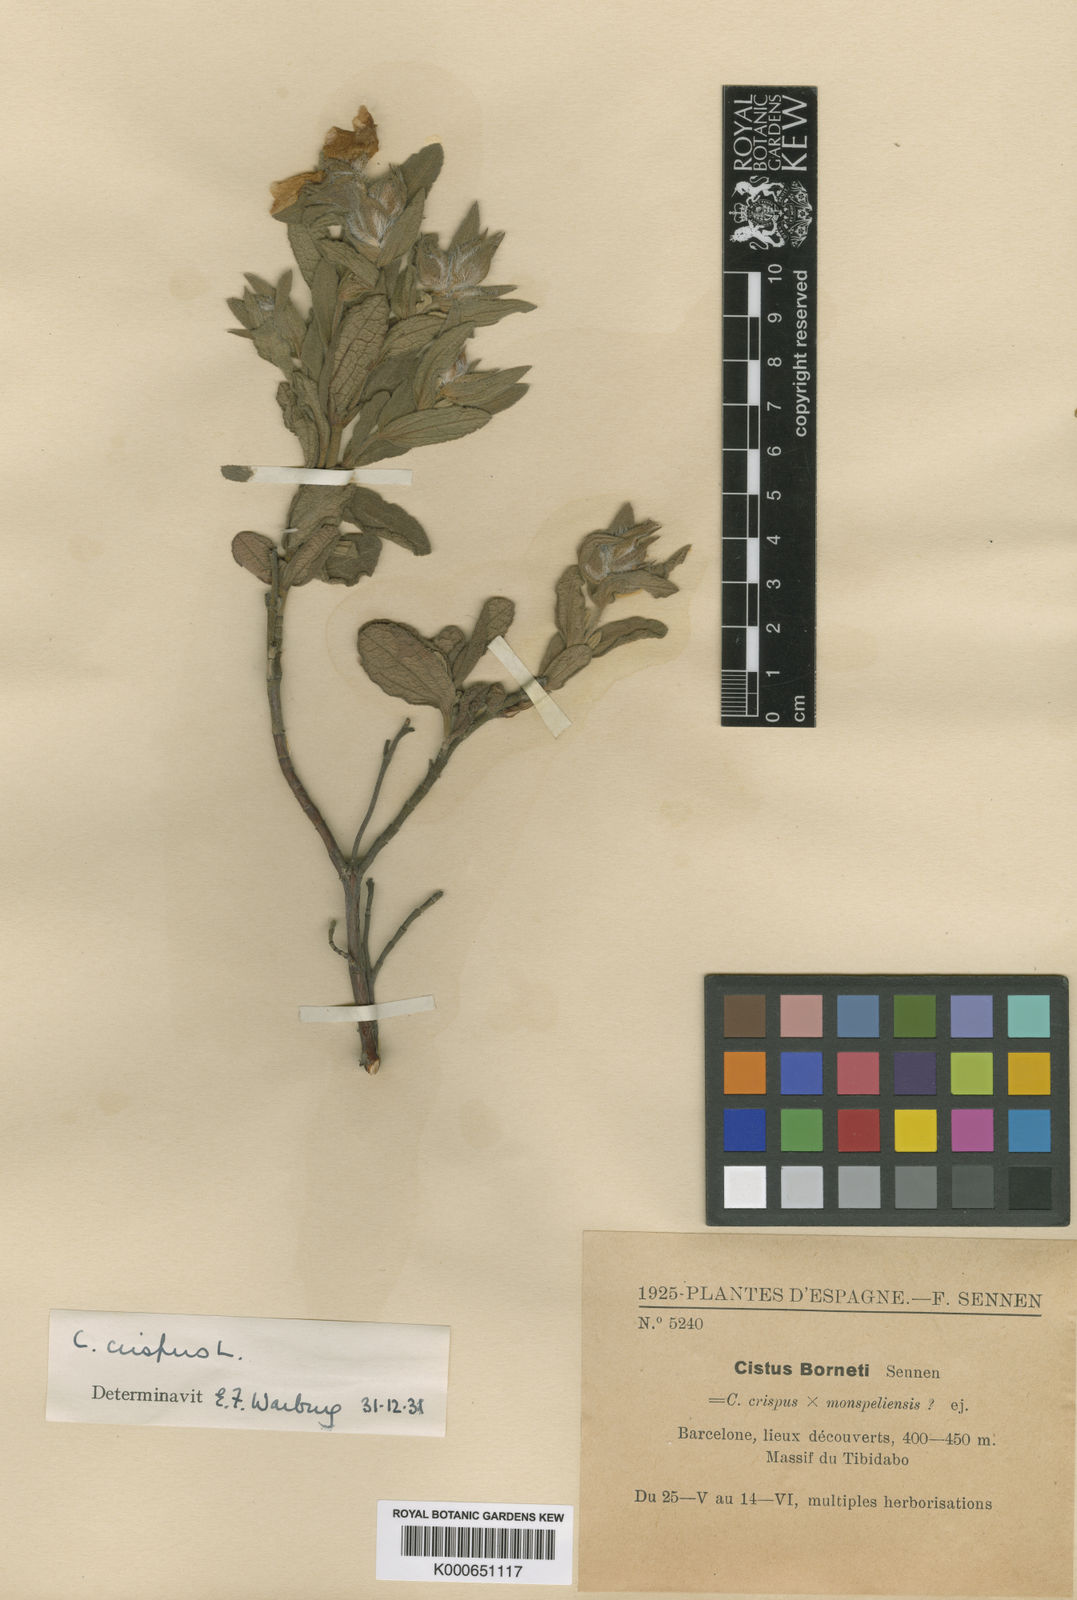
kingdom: Plantae
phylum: Tracheophyta
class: Magnoliopsida
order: Malvales
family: Cistaceae
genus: Cistus
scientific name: Cistus crispus
